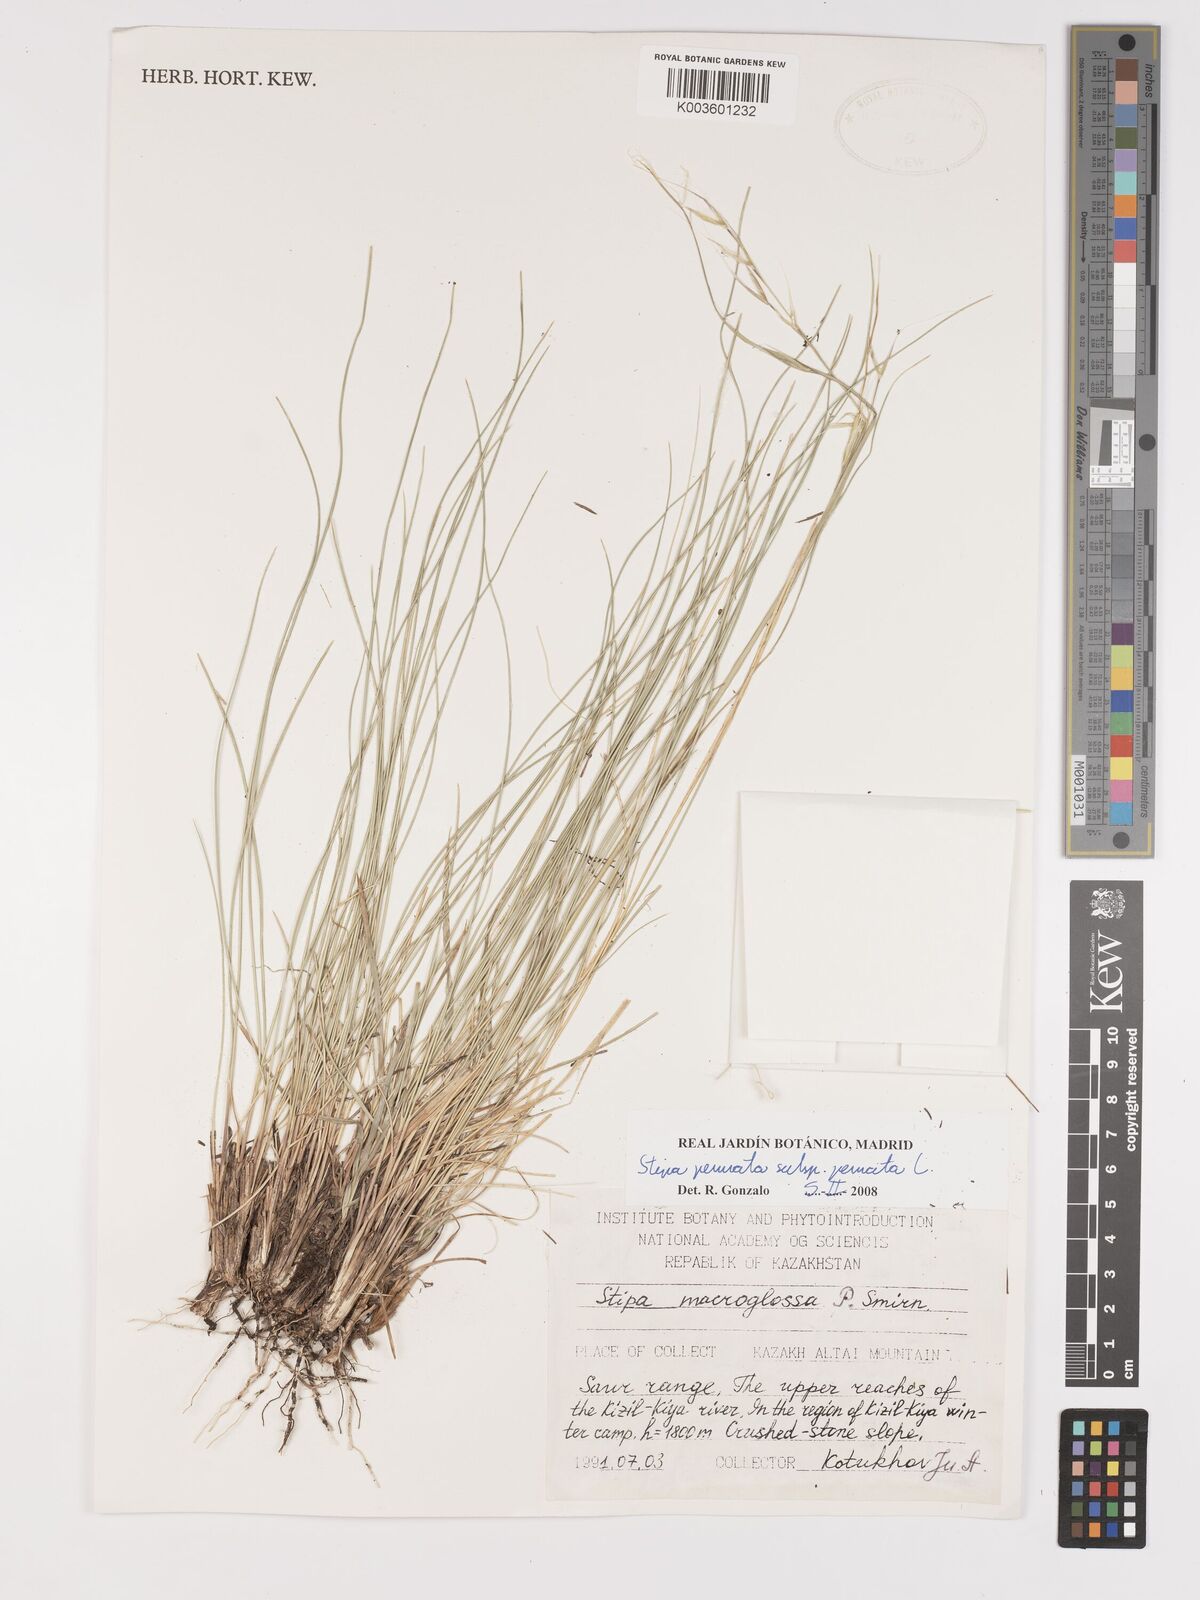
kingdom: Plantae
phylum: Tracheophyta
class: Liliopsida
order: Poales
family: Poaceae
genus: Stipa
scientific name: Stipa pennata
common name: European feather grass
